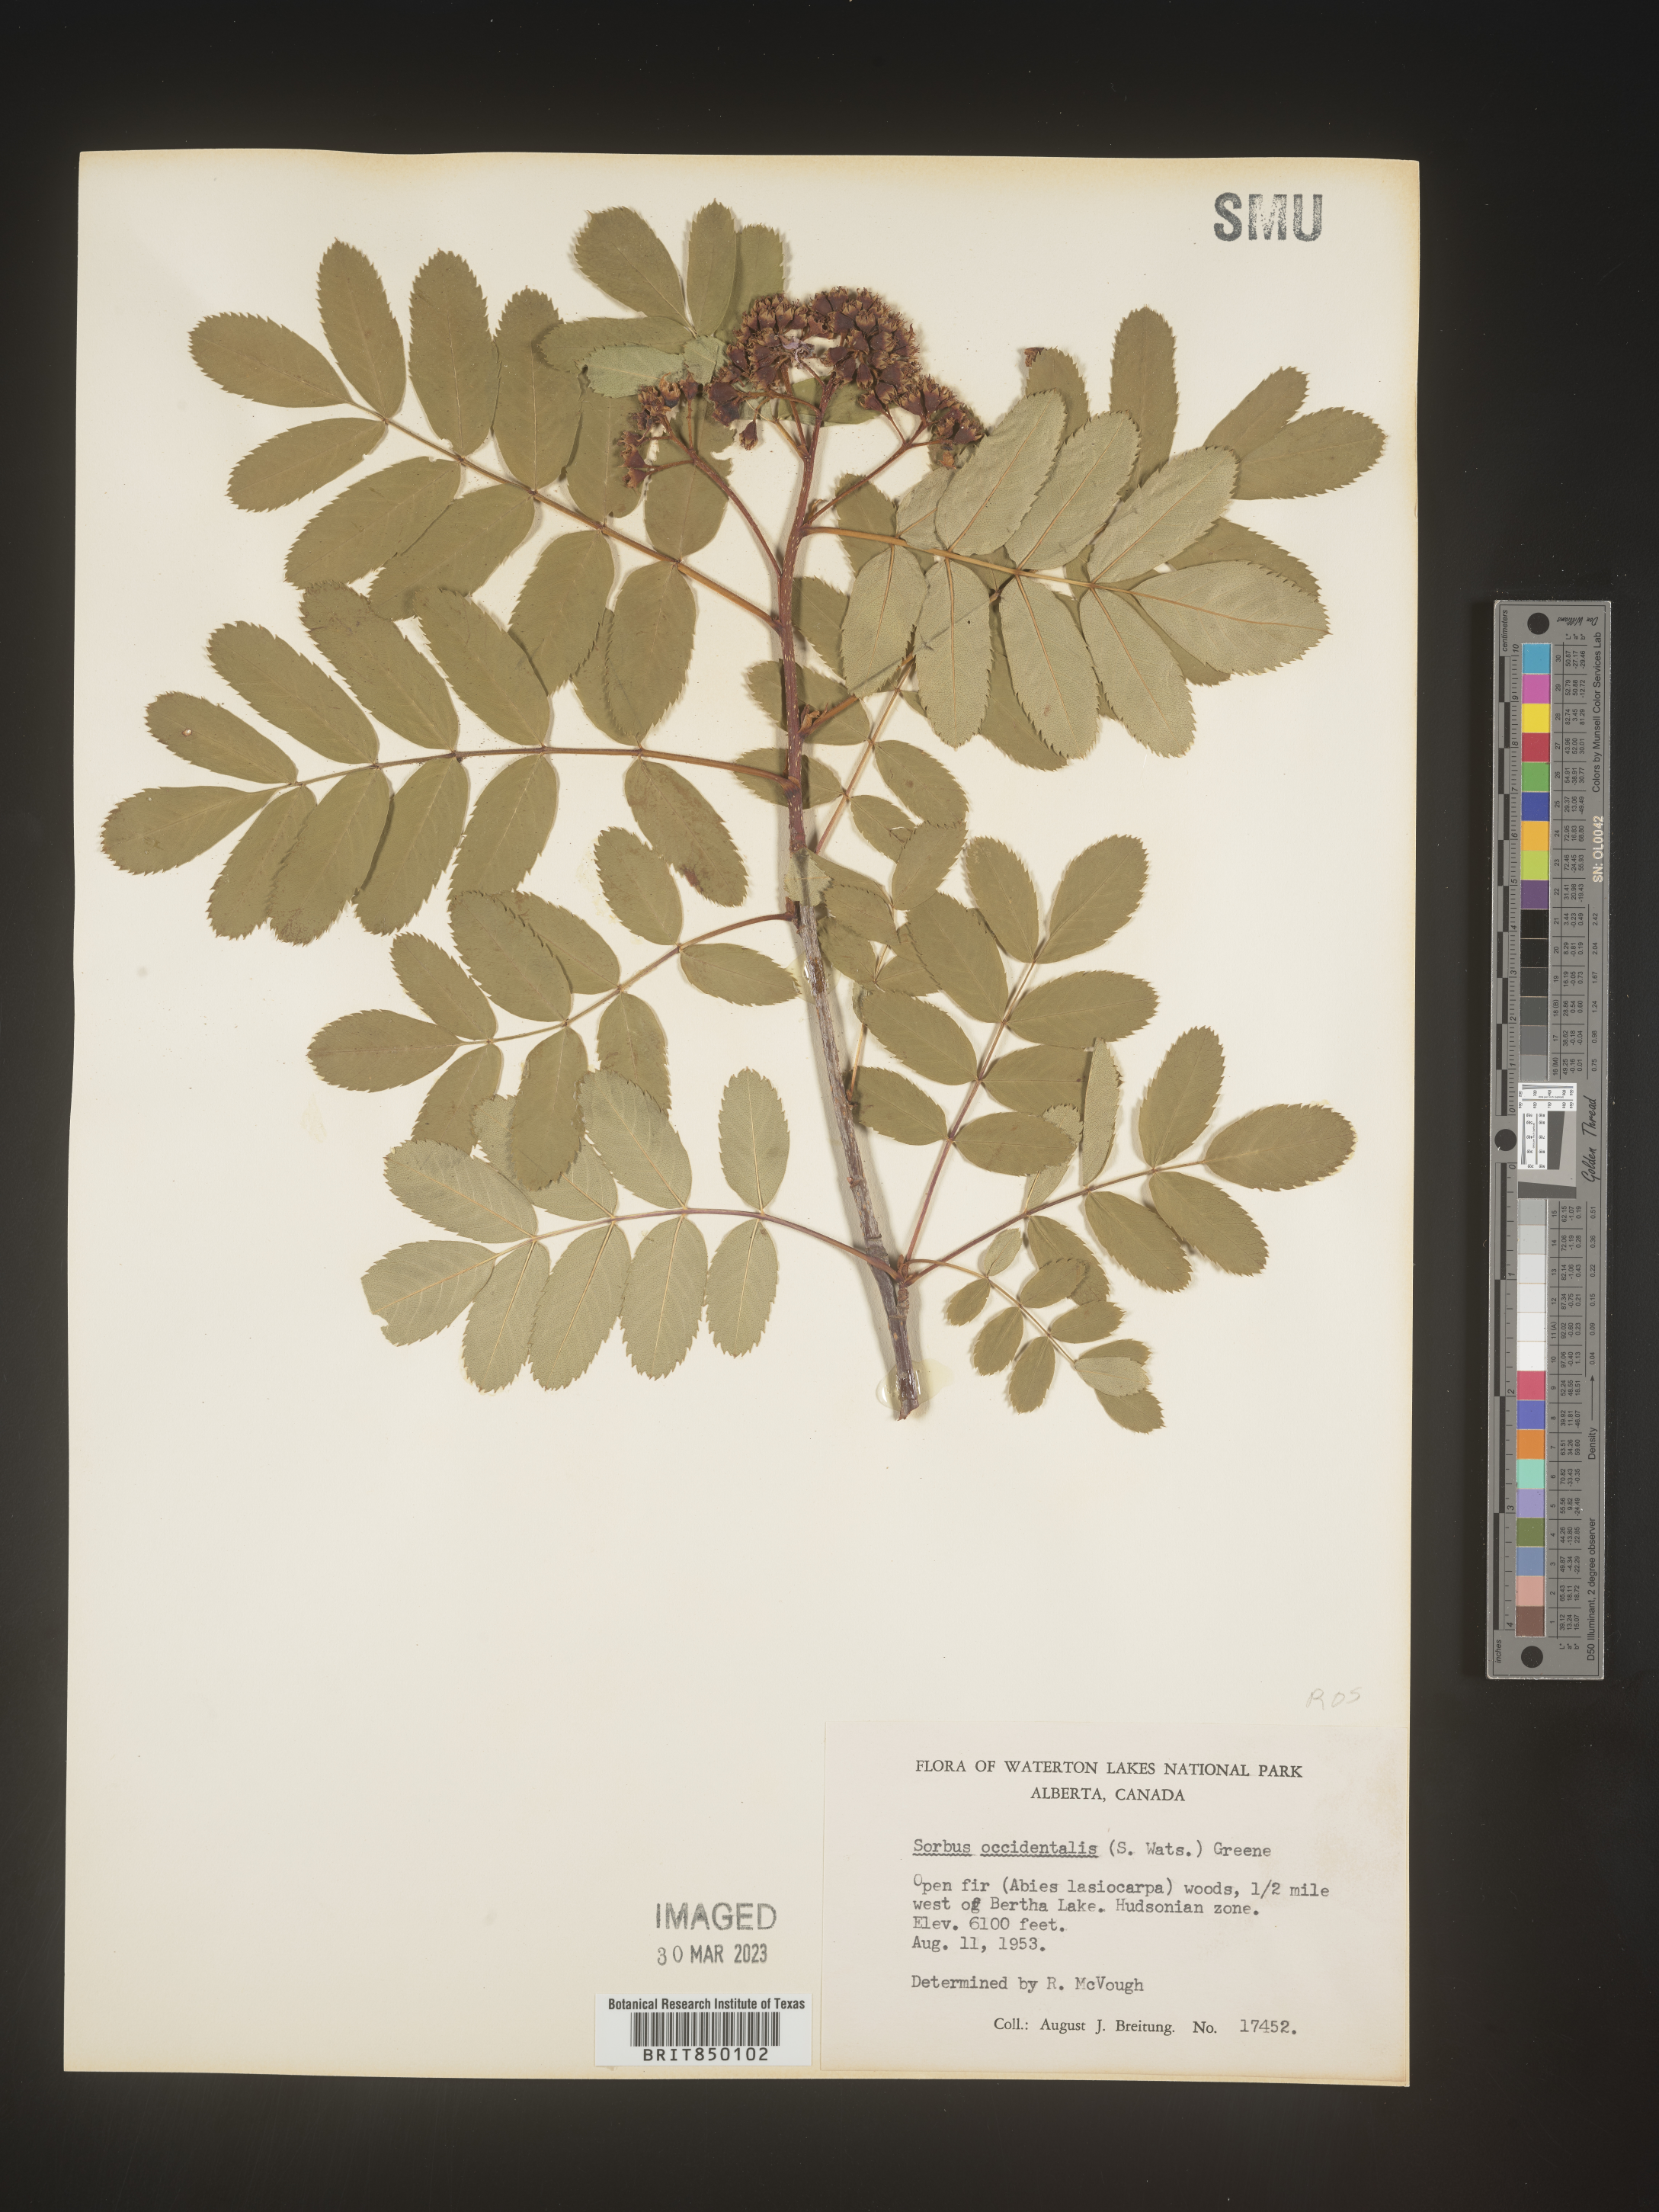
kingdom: Plantae
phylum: Tracheophyta
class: Magnoliopsida
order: Rosales
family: Rosaceae
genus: Sorbus
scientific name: Sorbus
